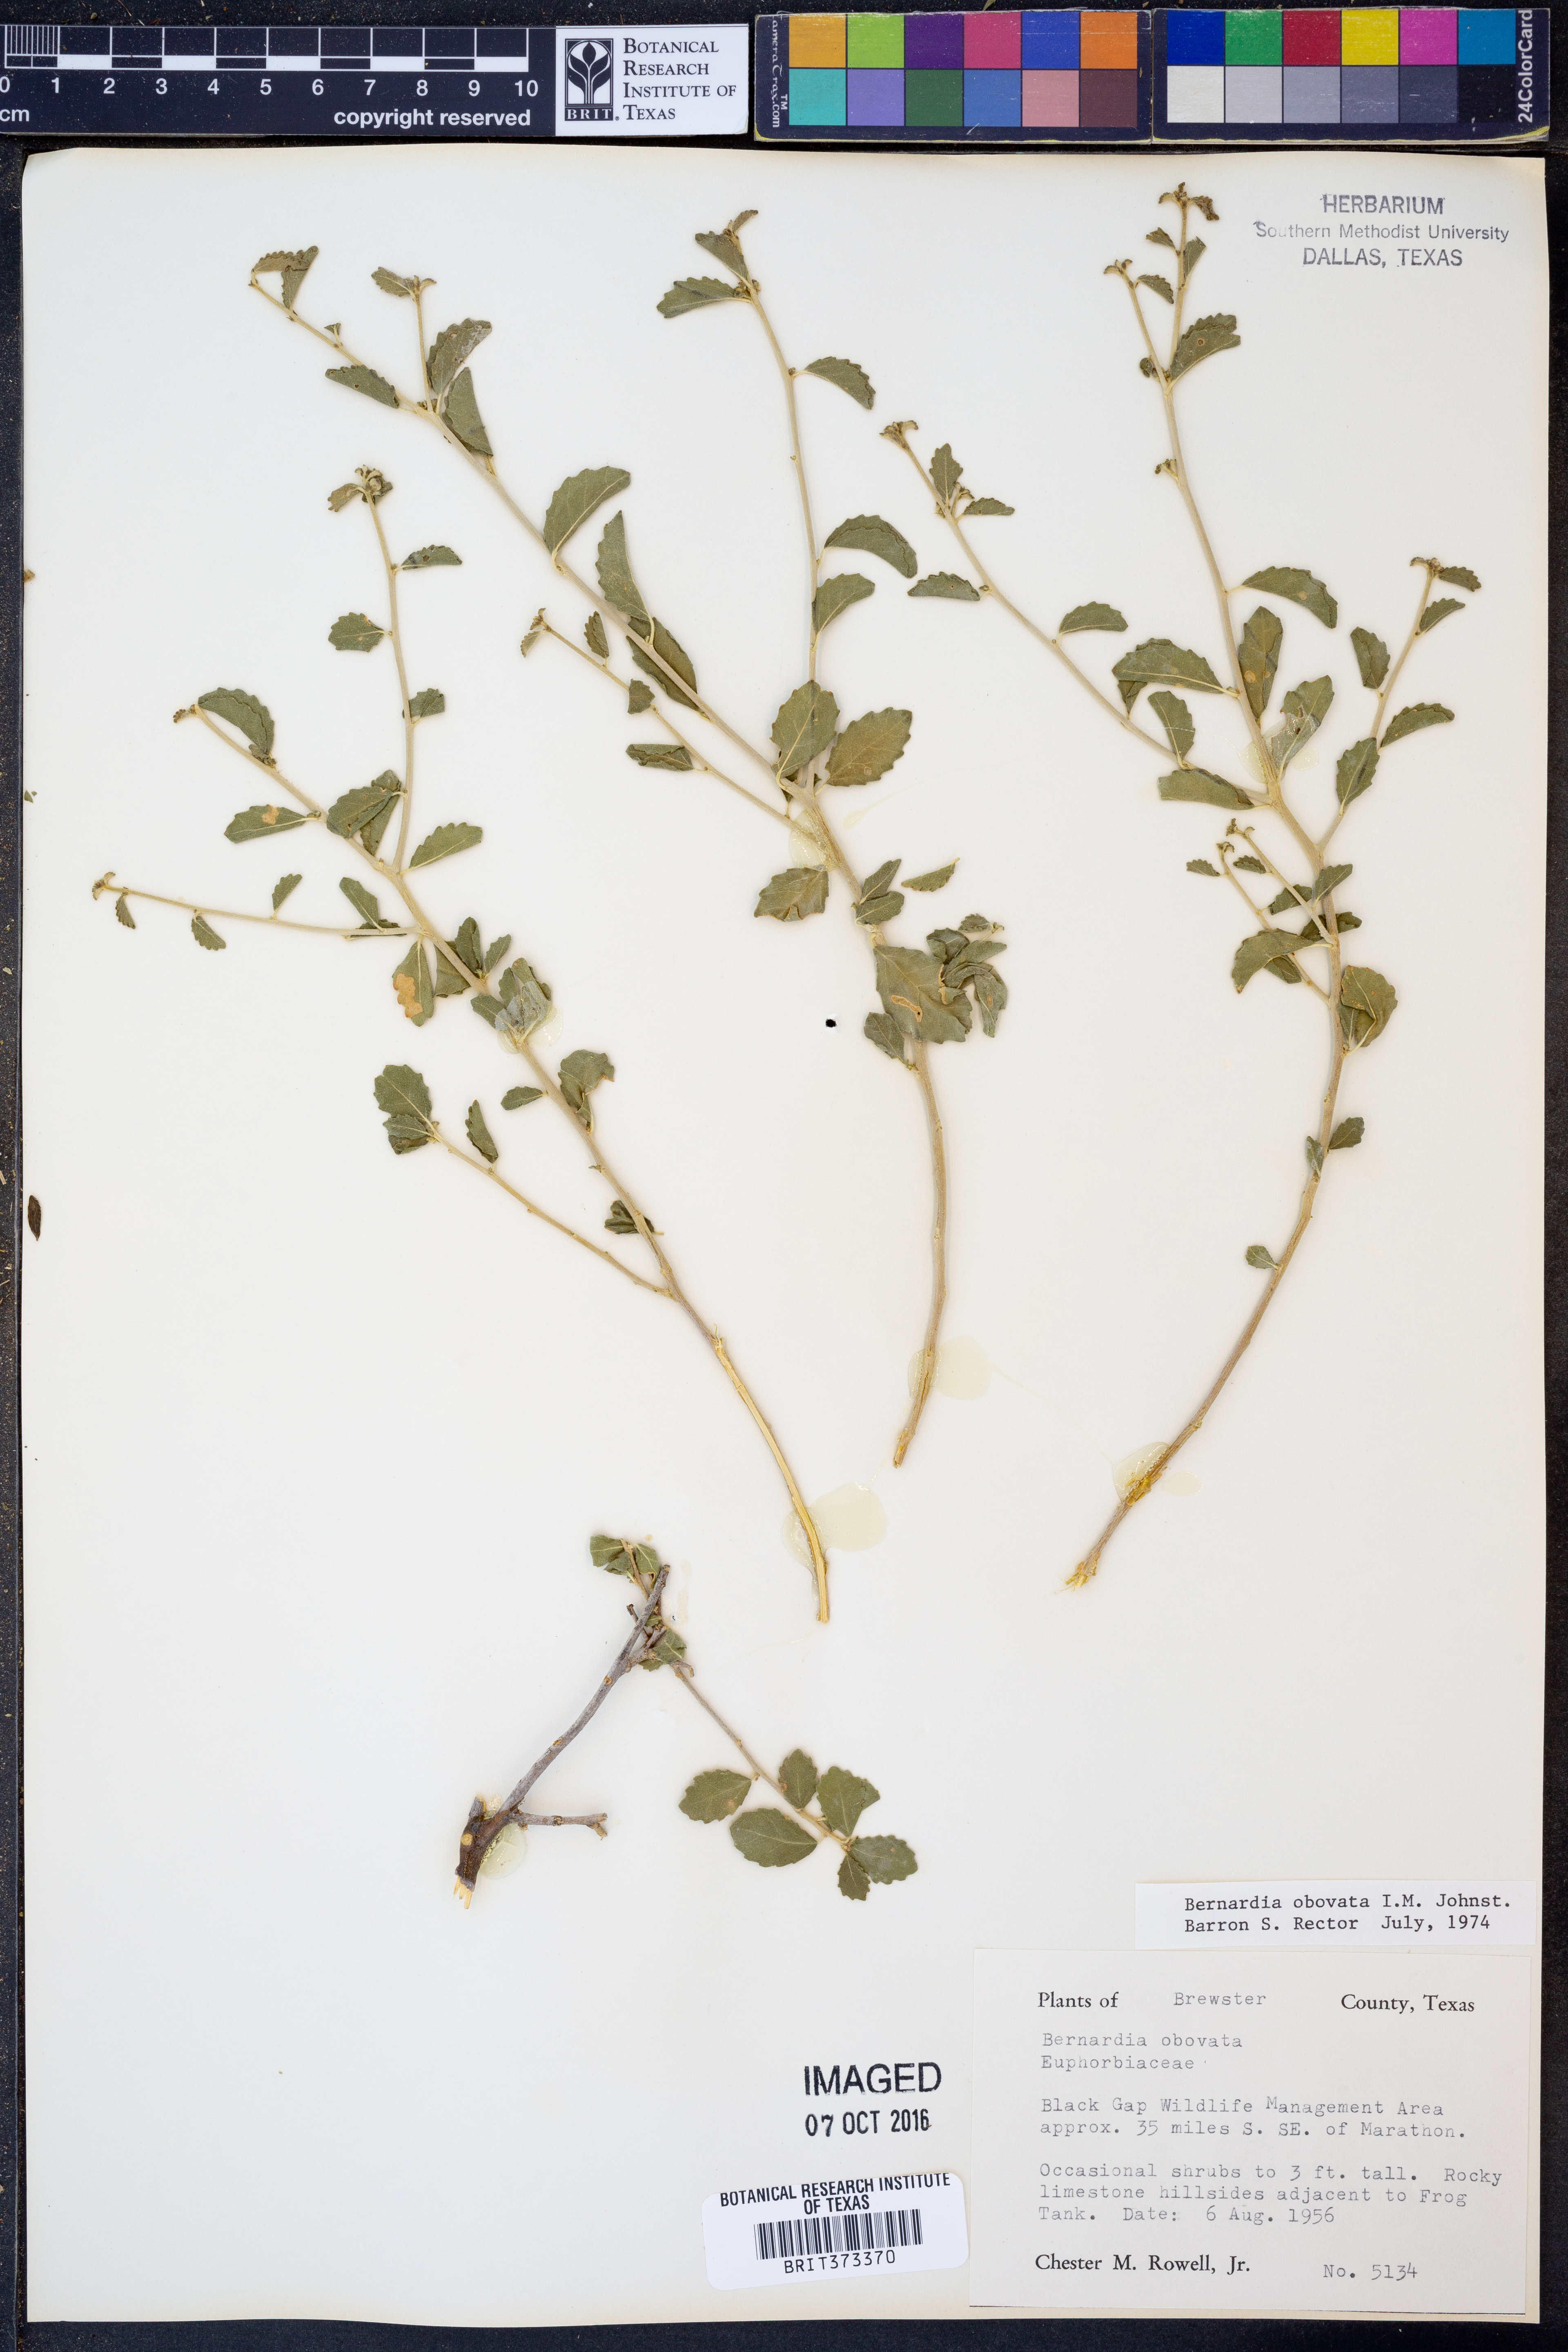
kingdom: Plantae
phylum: Tracheophyta
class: Magnoliopsida
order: Malpighiales
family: Euphorbiaceae
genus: Bernardia
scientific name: Bernardia obovata
